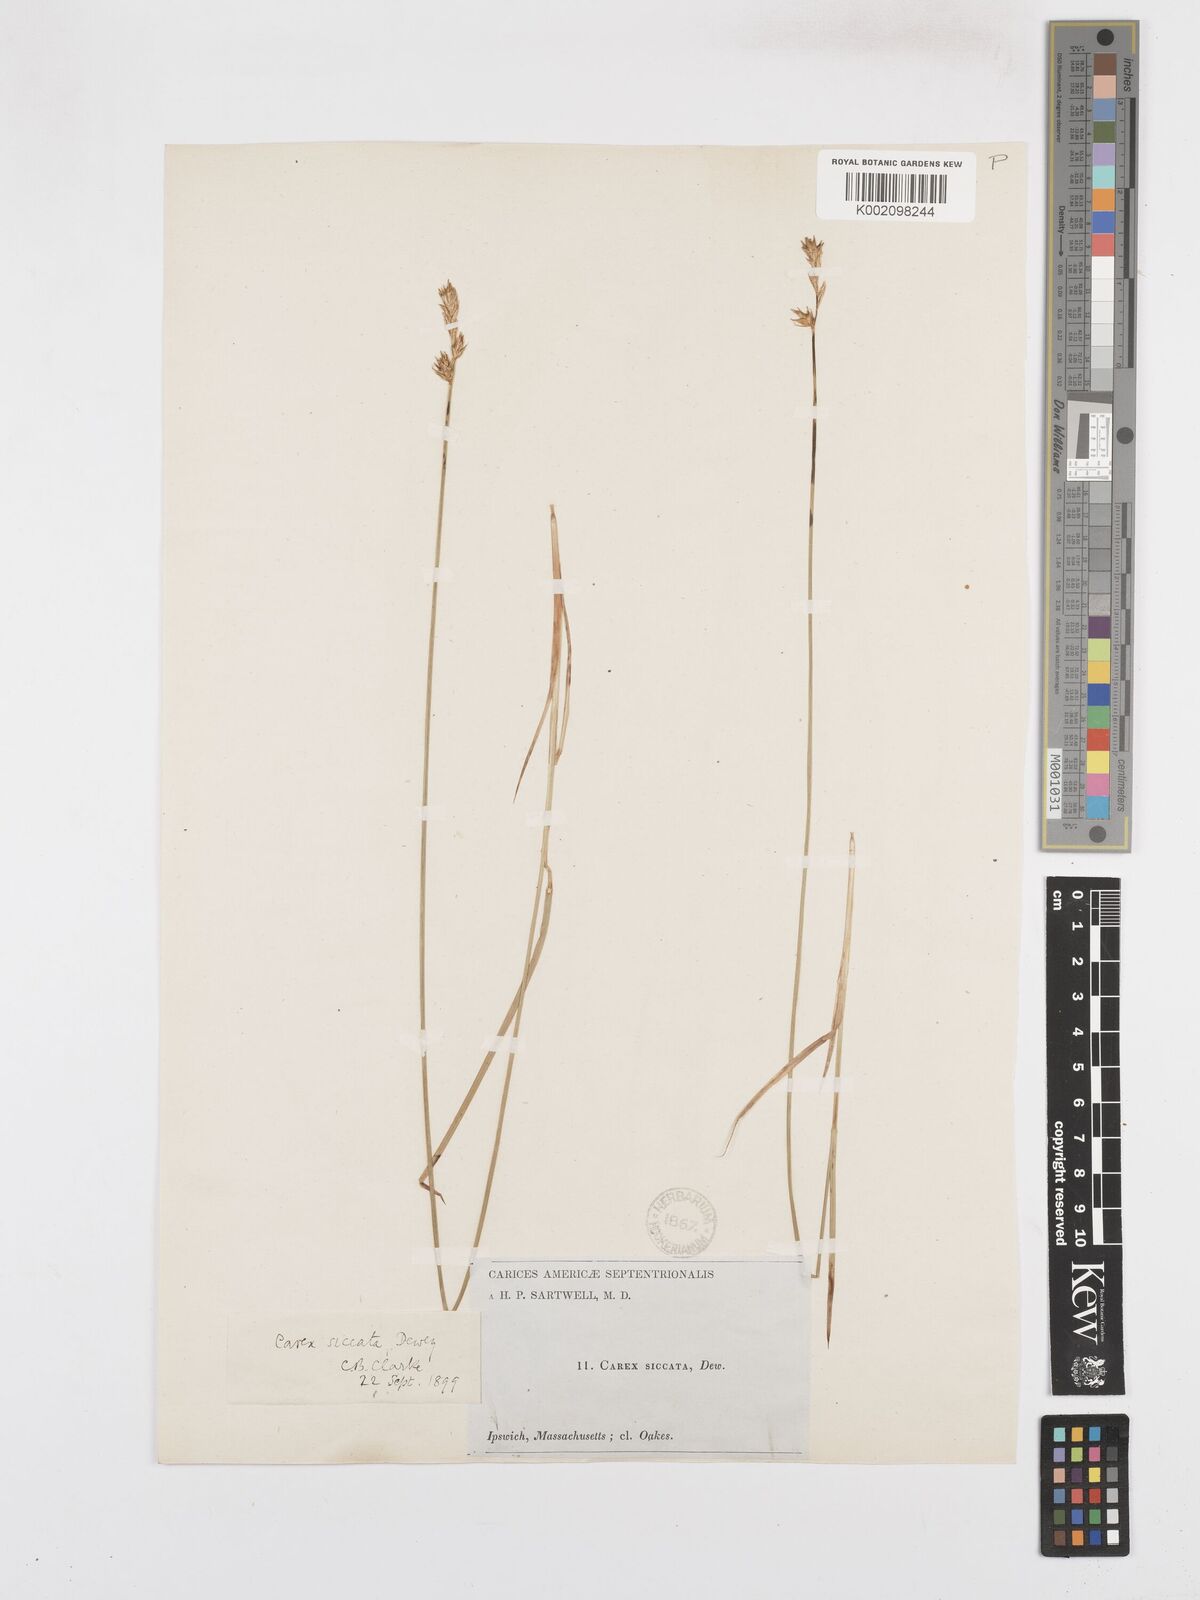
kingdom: Plantae
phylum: Tracheophyta
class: Liliopsida
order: Poales
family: Cyperaceae
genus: Carex
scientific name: Carex foenea
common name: Bronze sedge
